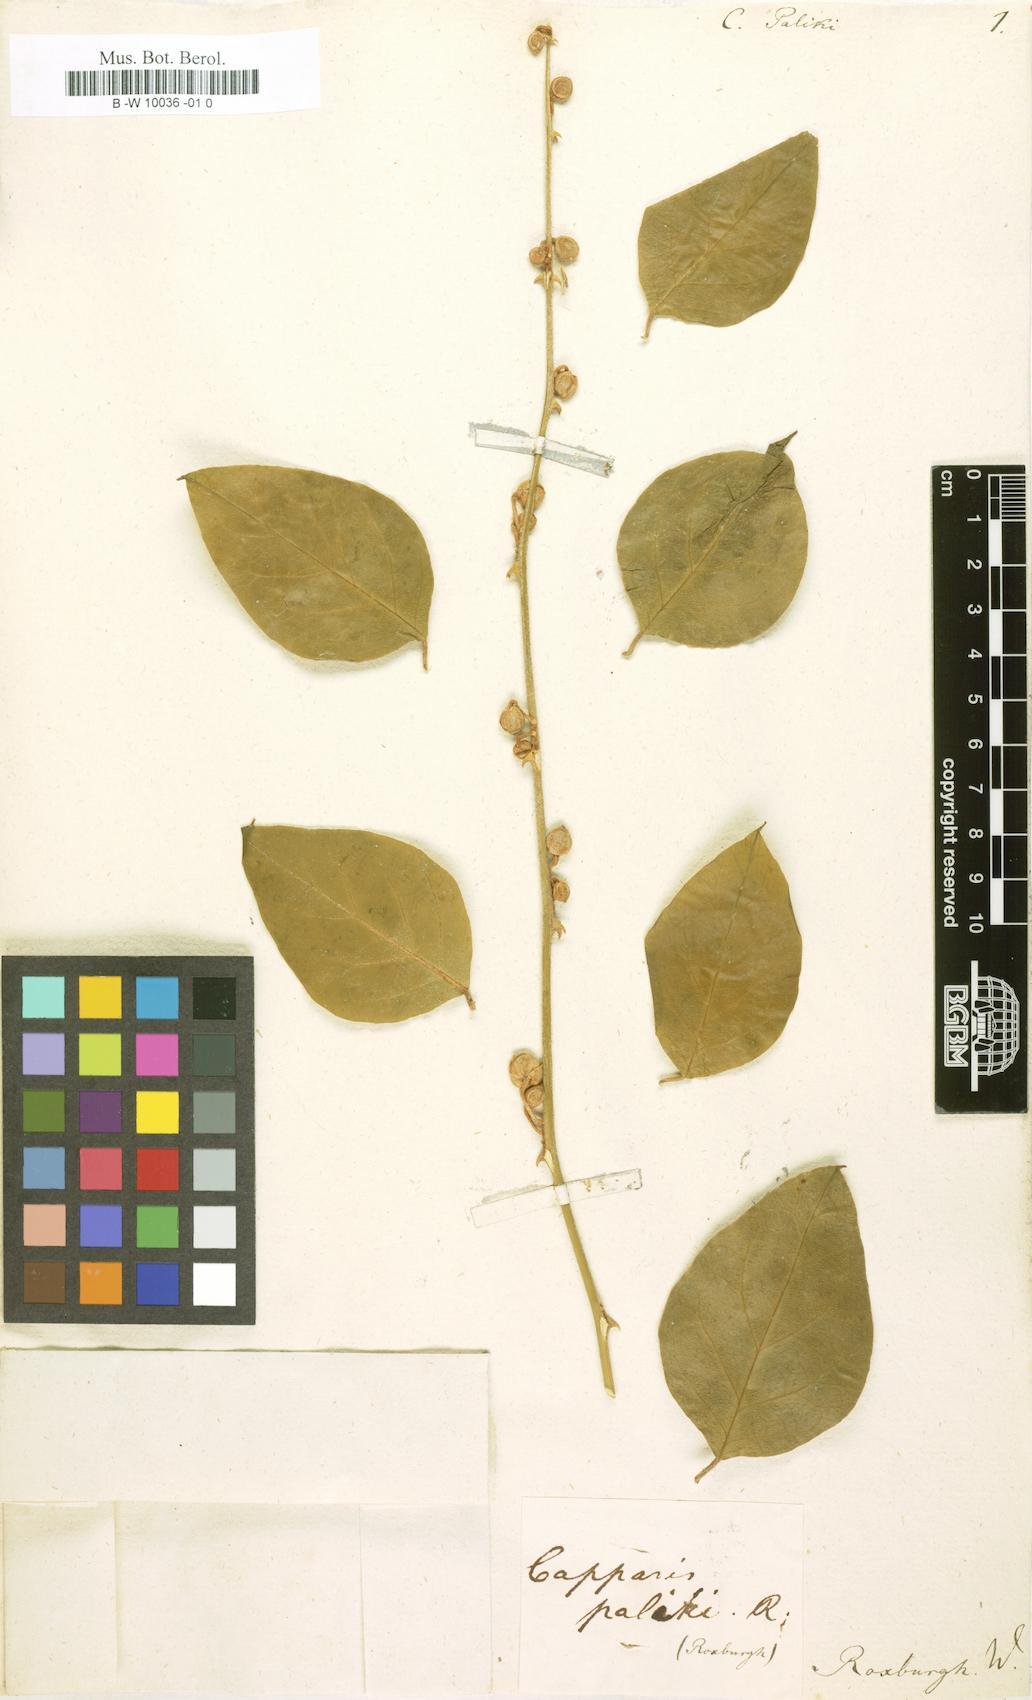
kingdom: Plantae
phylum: Tracheophyta
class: Magnoliopsida
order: Brassicales
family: Capparaceae
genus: Capparis
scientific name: Capparis
